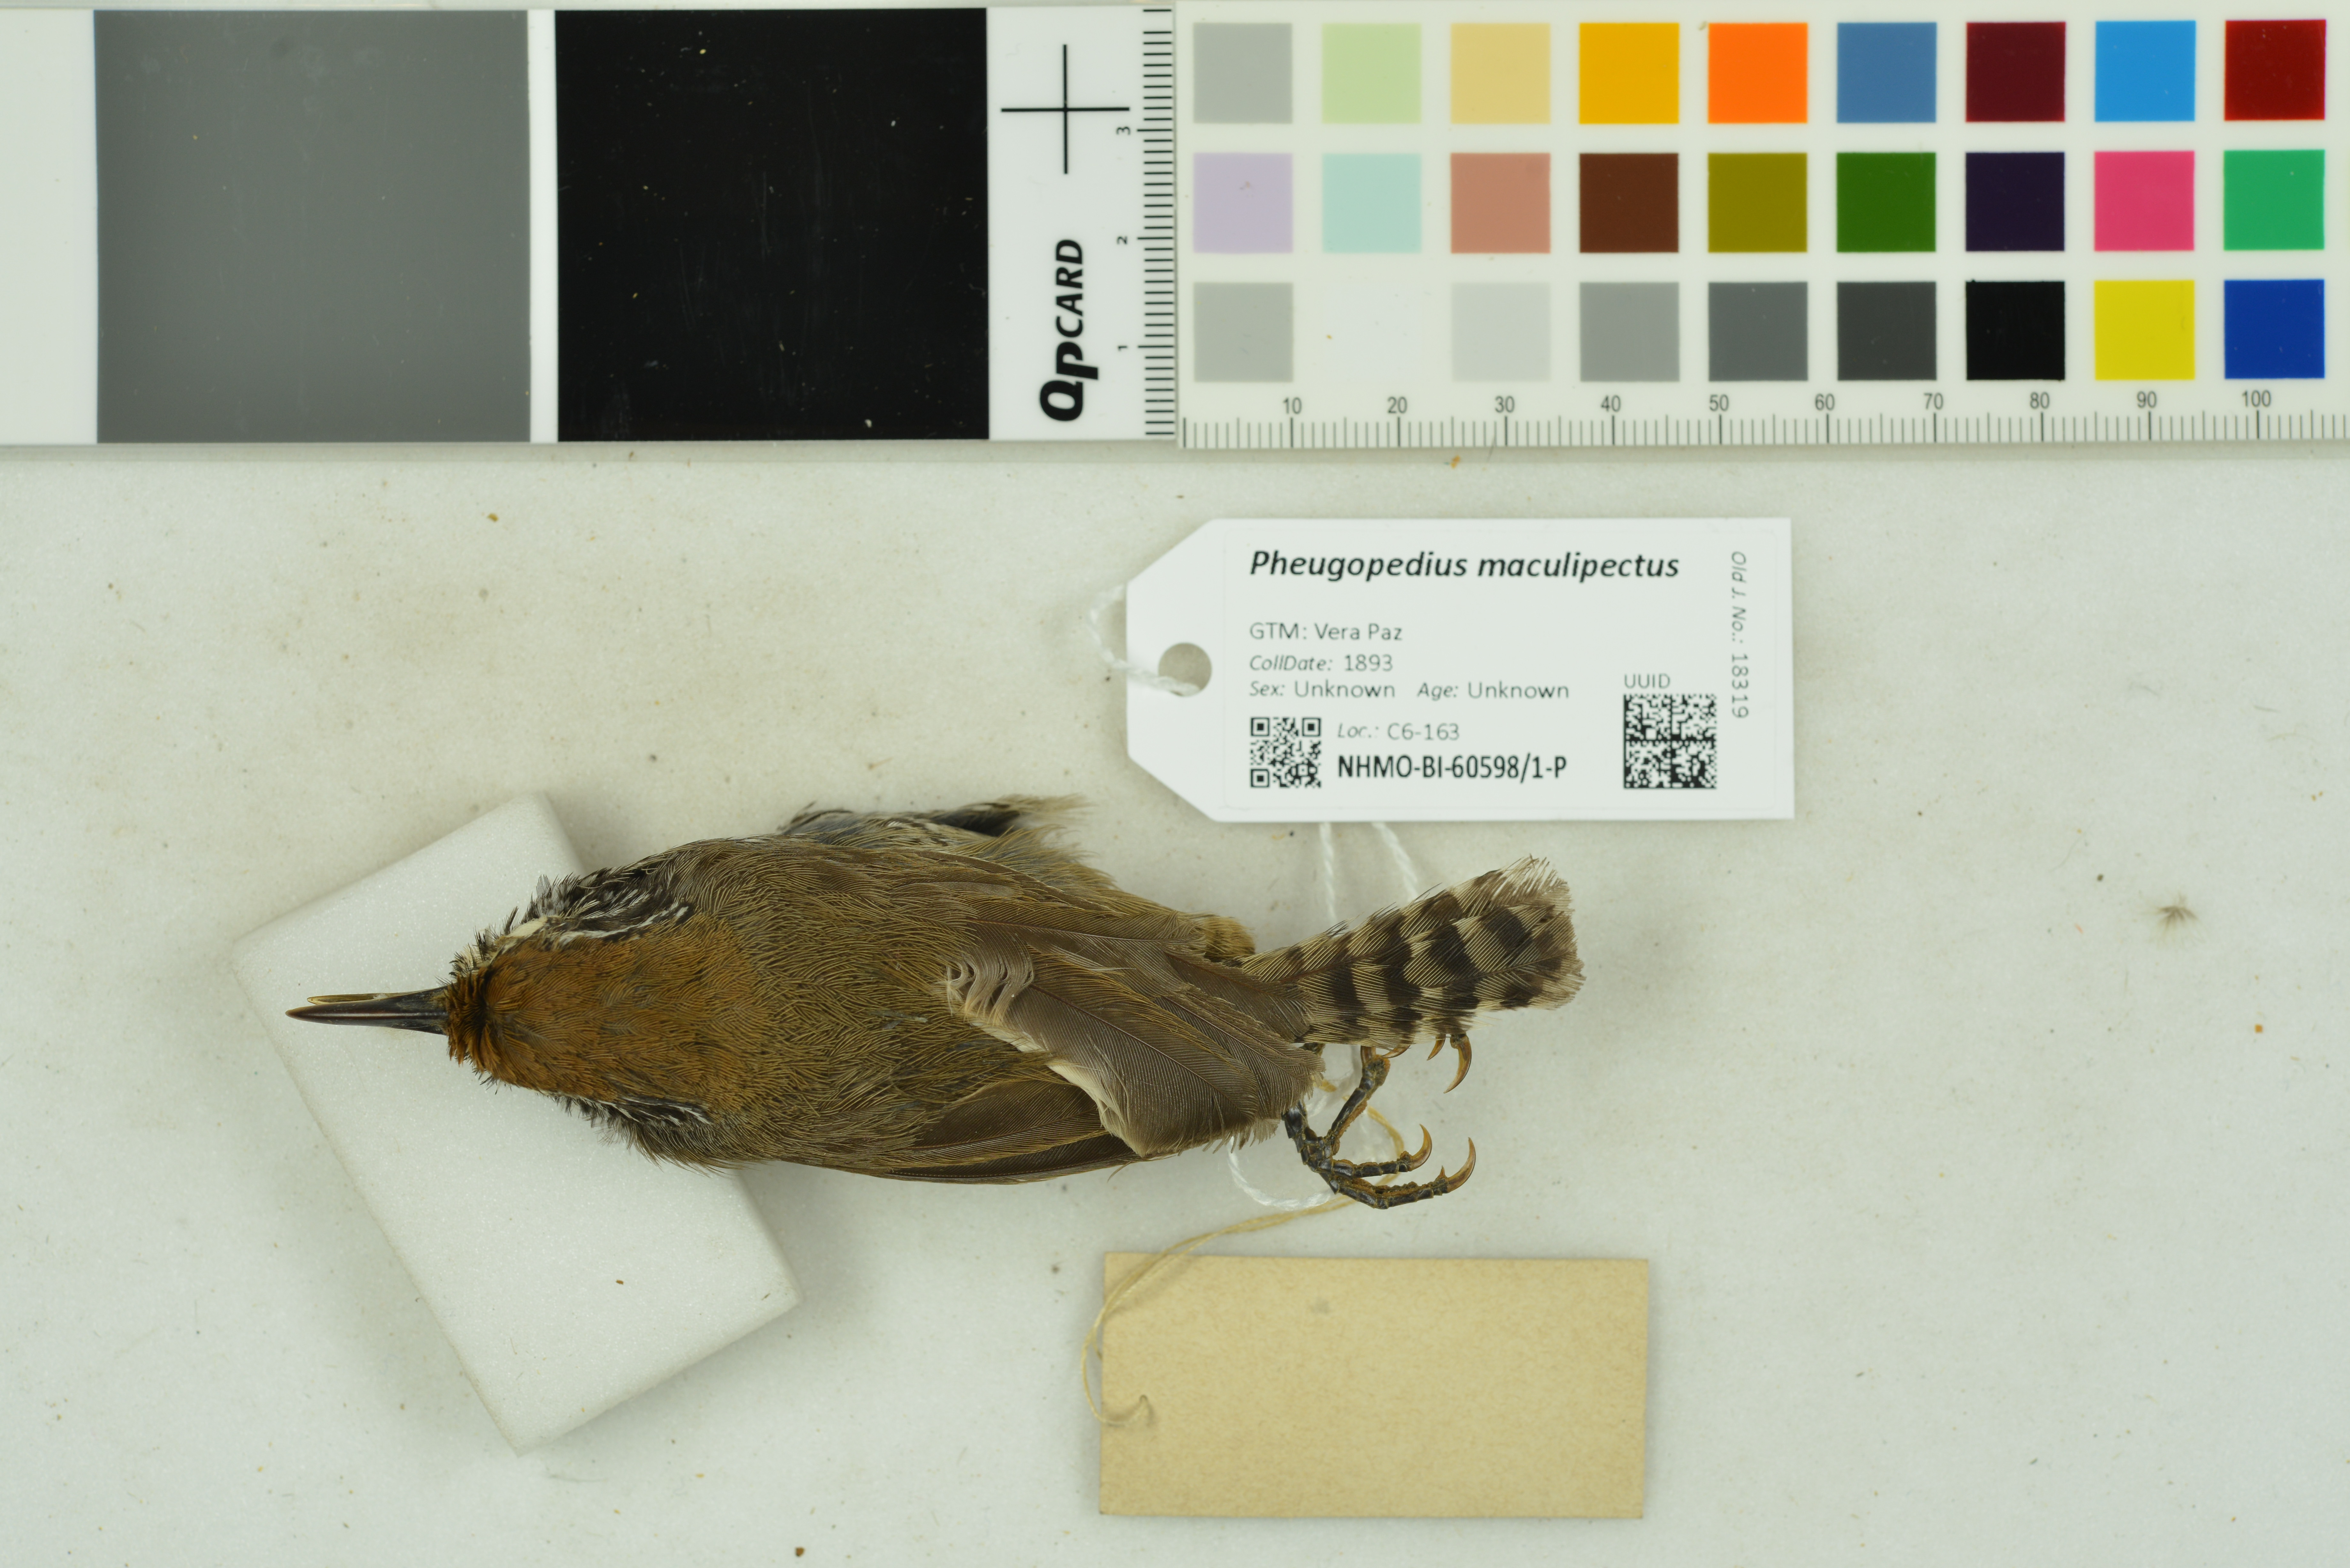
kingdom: Animalia
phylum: Chordata
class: Aves
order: Passeriformes
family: Troglodytidae
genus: Pheugopedius
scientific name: Pheugopedius maculipectus
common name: Spot-breasted wren
